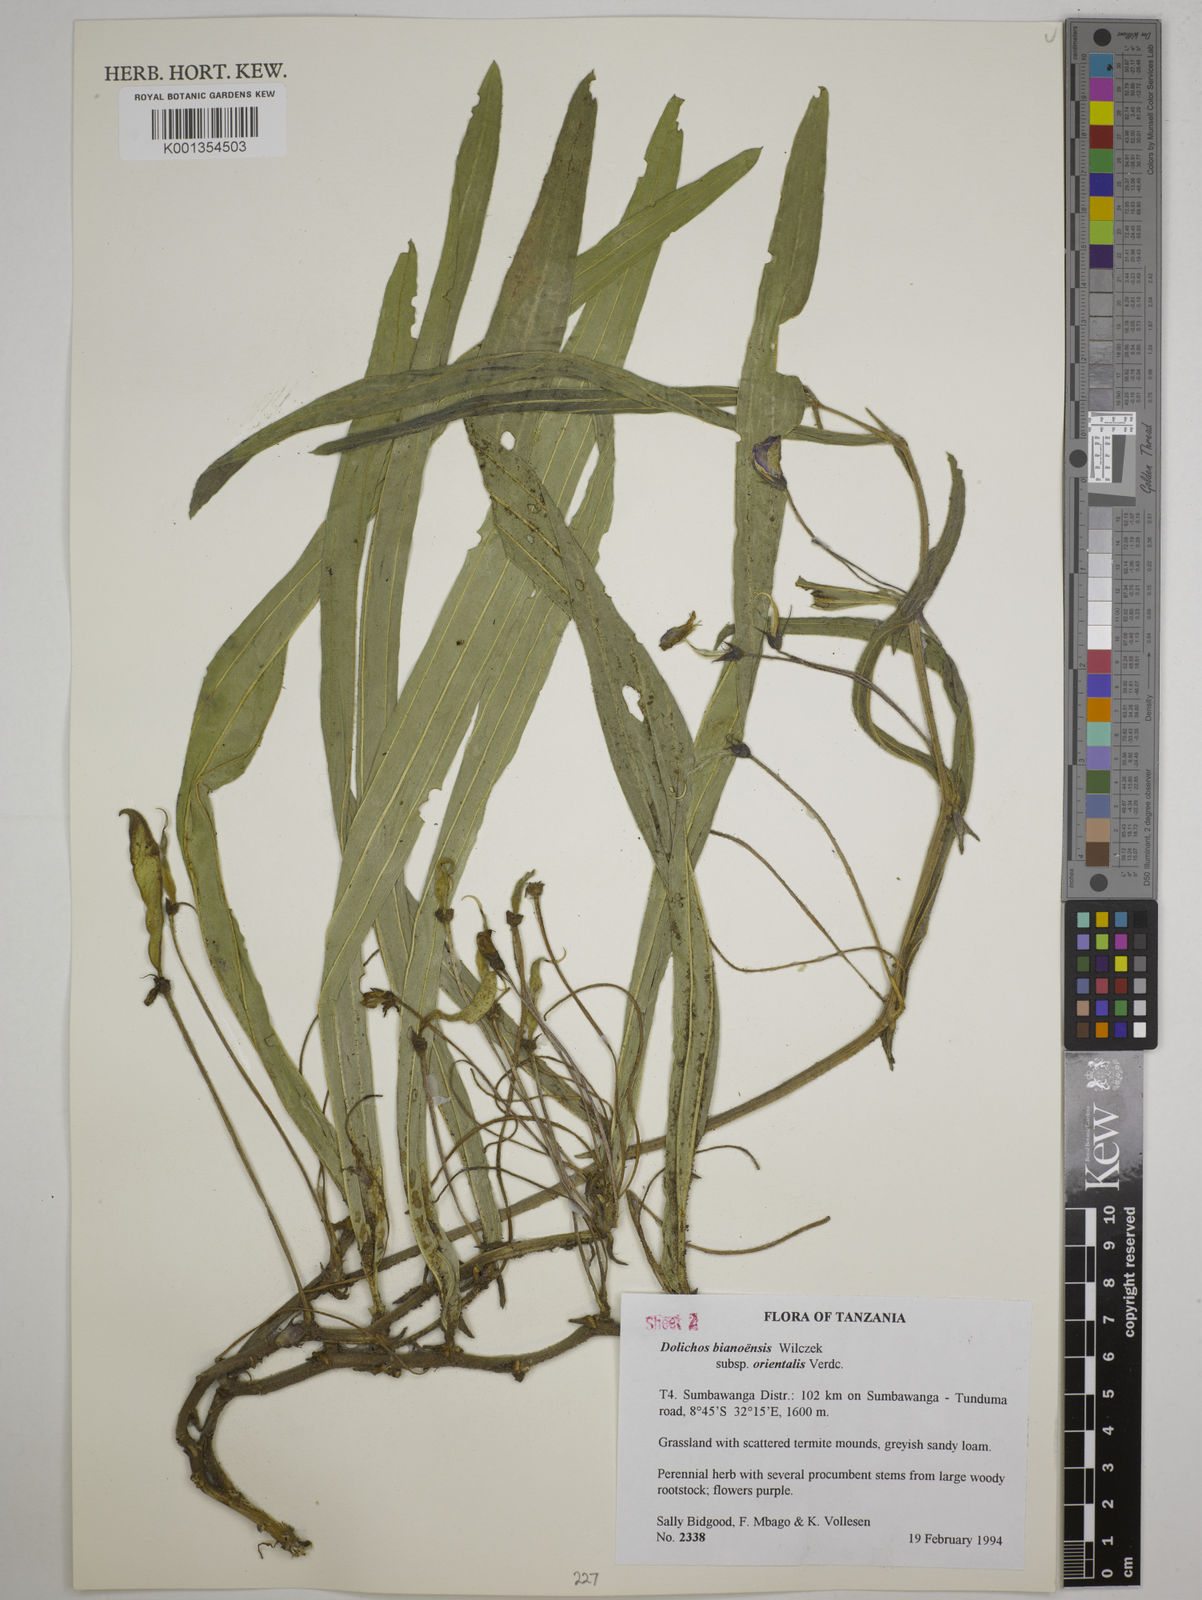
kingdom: Plantae
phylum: Tracheophyta
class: Magnoliopsida
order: Fabales
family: Fabaceae
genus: Dolichos
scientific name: Dolichos
